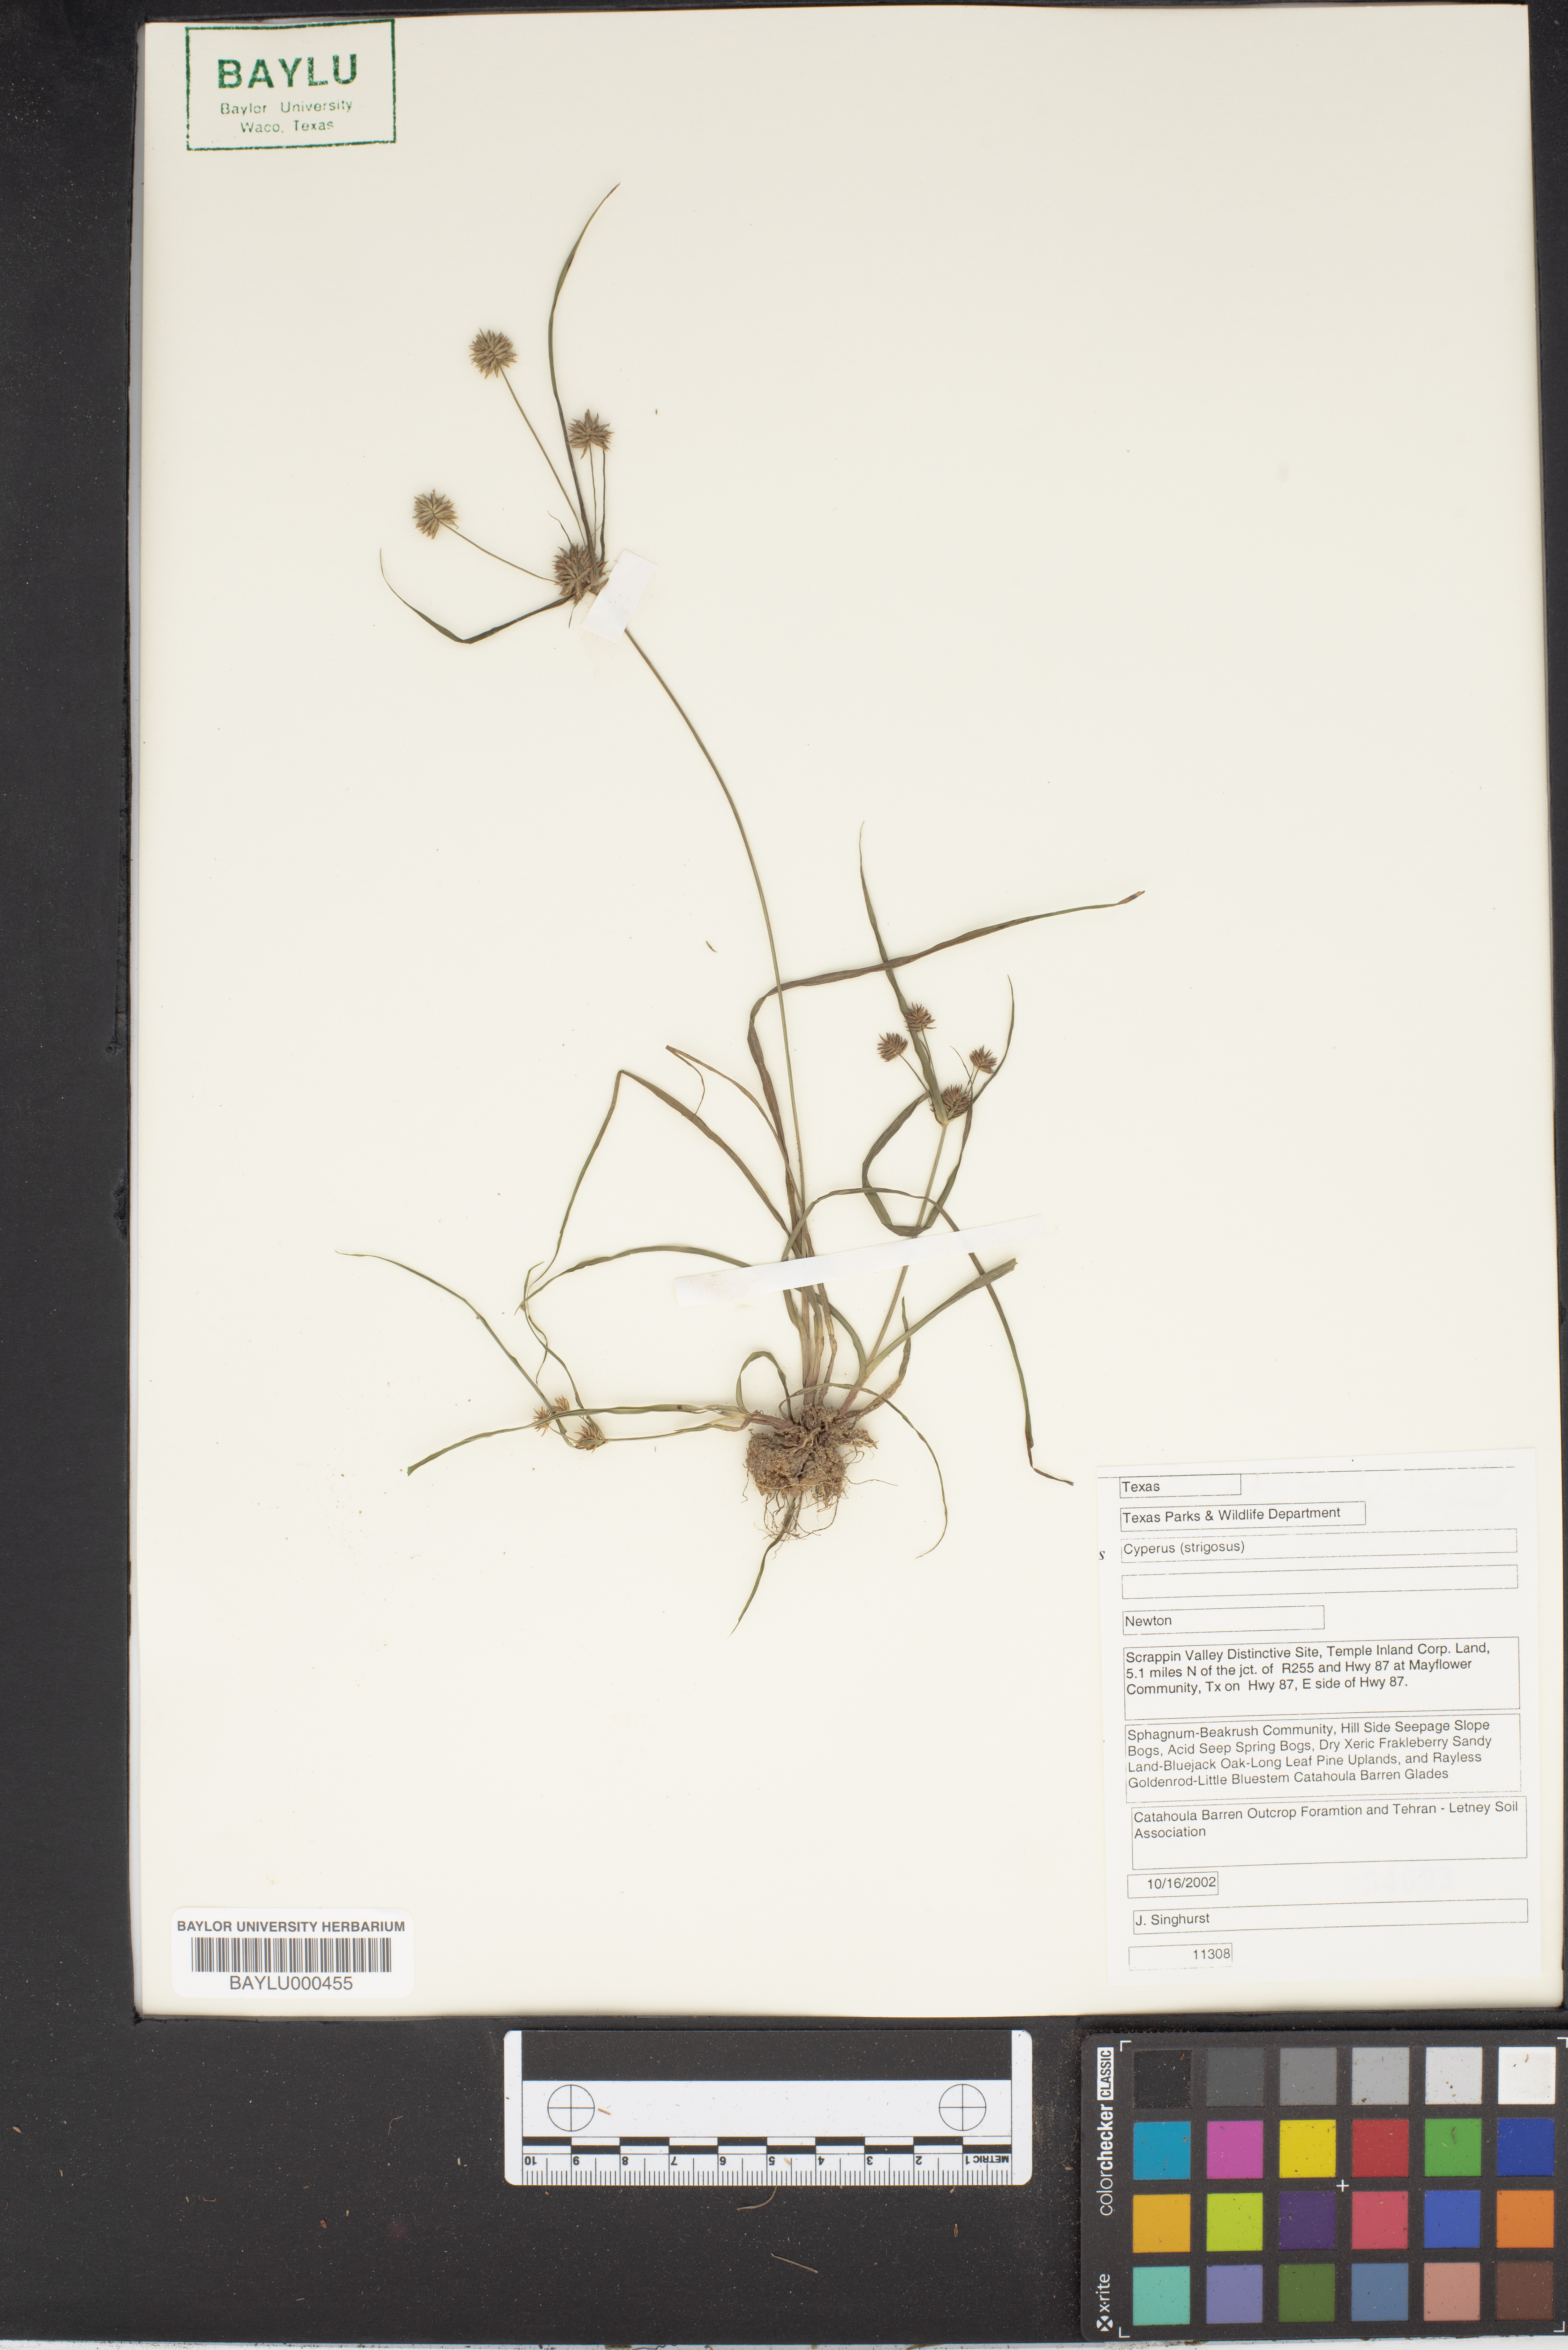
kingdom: Plantae
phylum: Tracheophyta
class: Liliopsida
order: Poales
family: Cyperaceae
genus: Cyperus
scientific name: Cyperus strigosus
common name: False nutsedge
